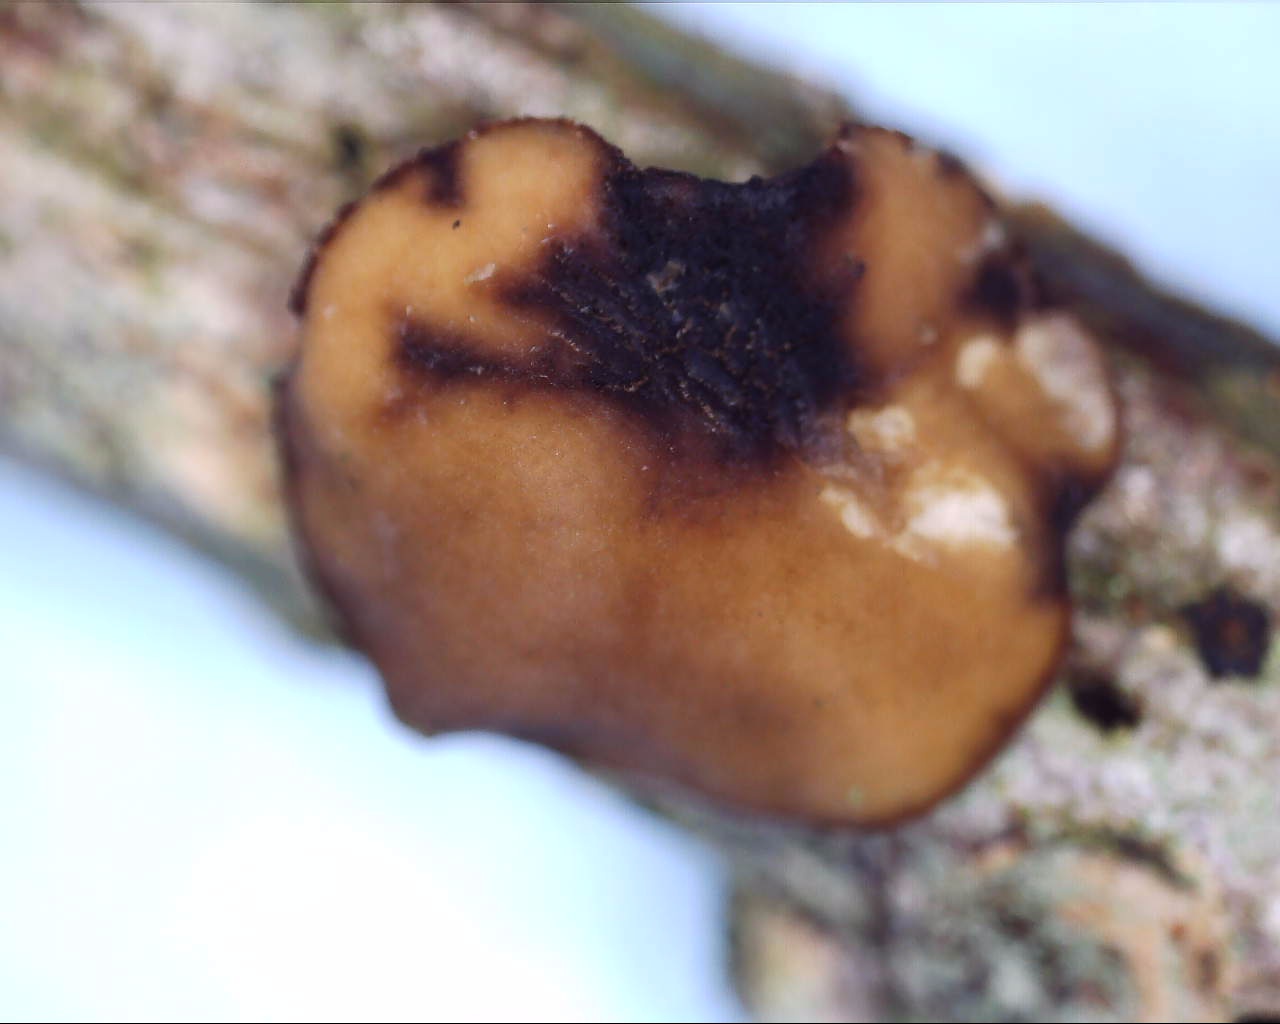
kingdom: Fungi
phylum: Ascomycota
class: Leotiomycetes
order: Helotiales
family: Rutstroemiaceae
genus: Rutstroemia
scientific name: Rutstroemia firma
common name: gren-brunskive
